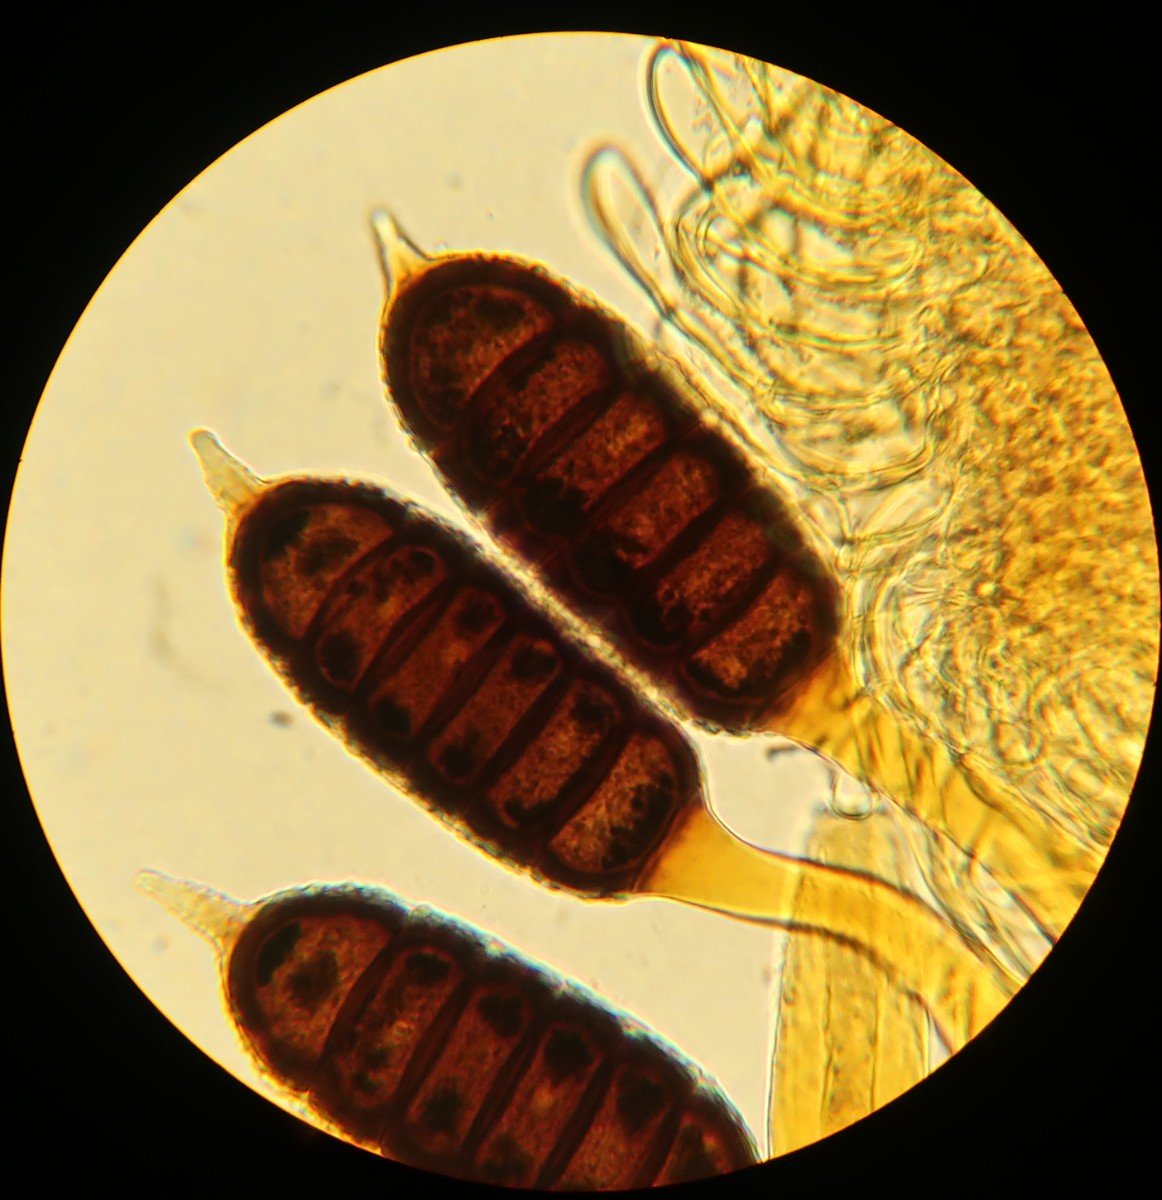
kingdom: Fungi
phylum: Basidiomycota
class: Pucciniomycetes
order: Pucciniales
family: Phragmidiaceae
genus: Phragmidium
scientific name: Phragmidium mucronatum
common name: rose-flercellerust
